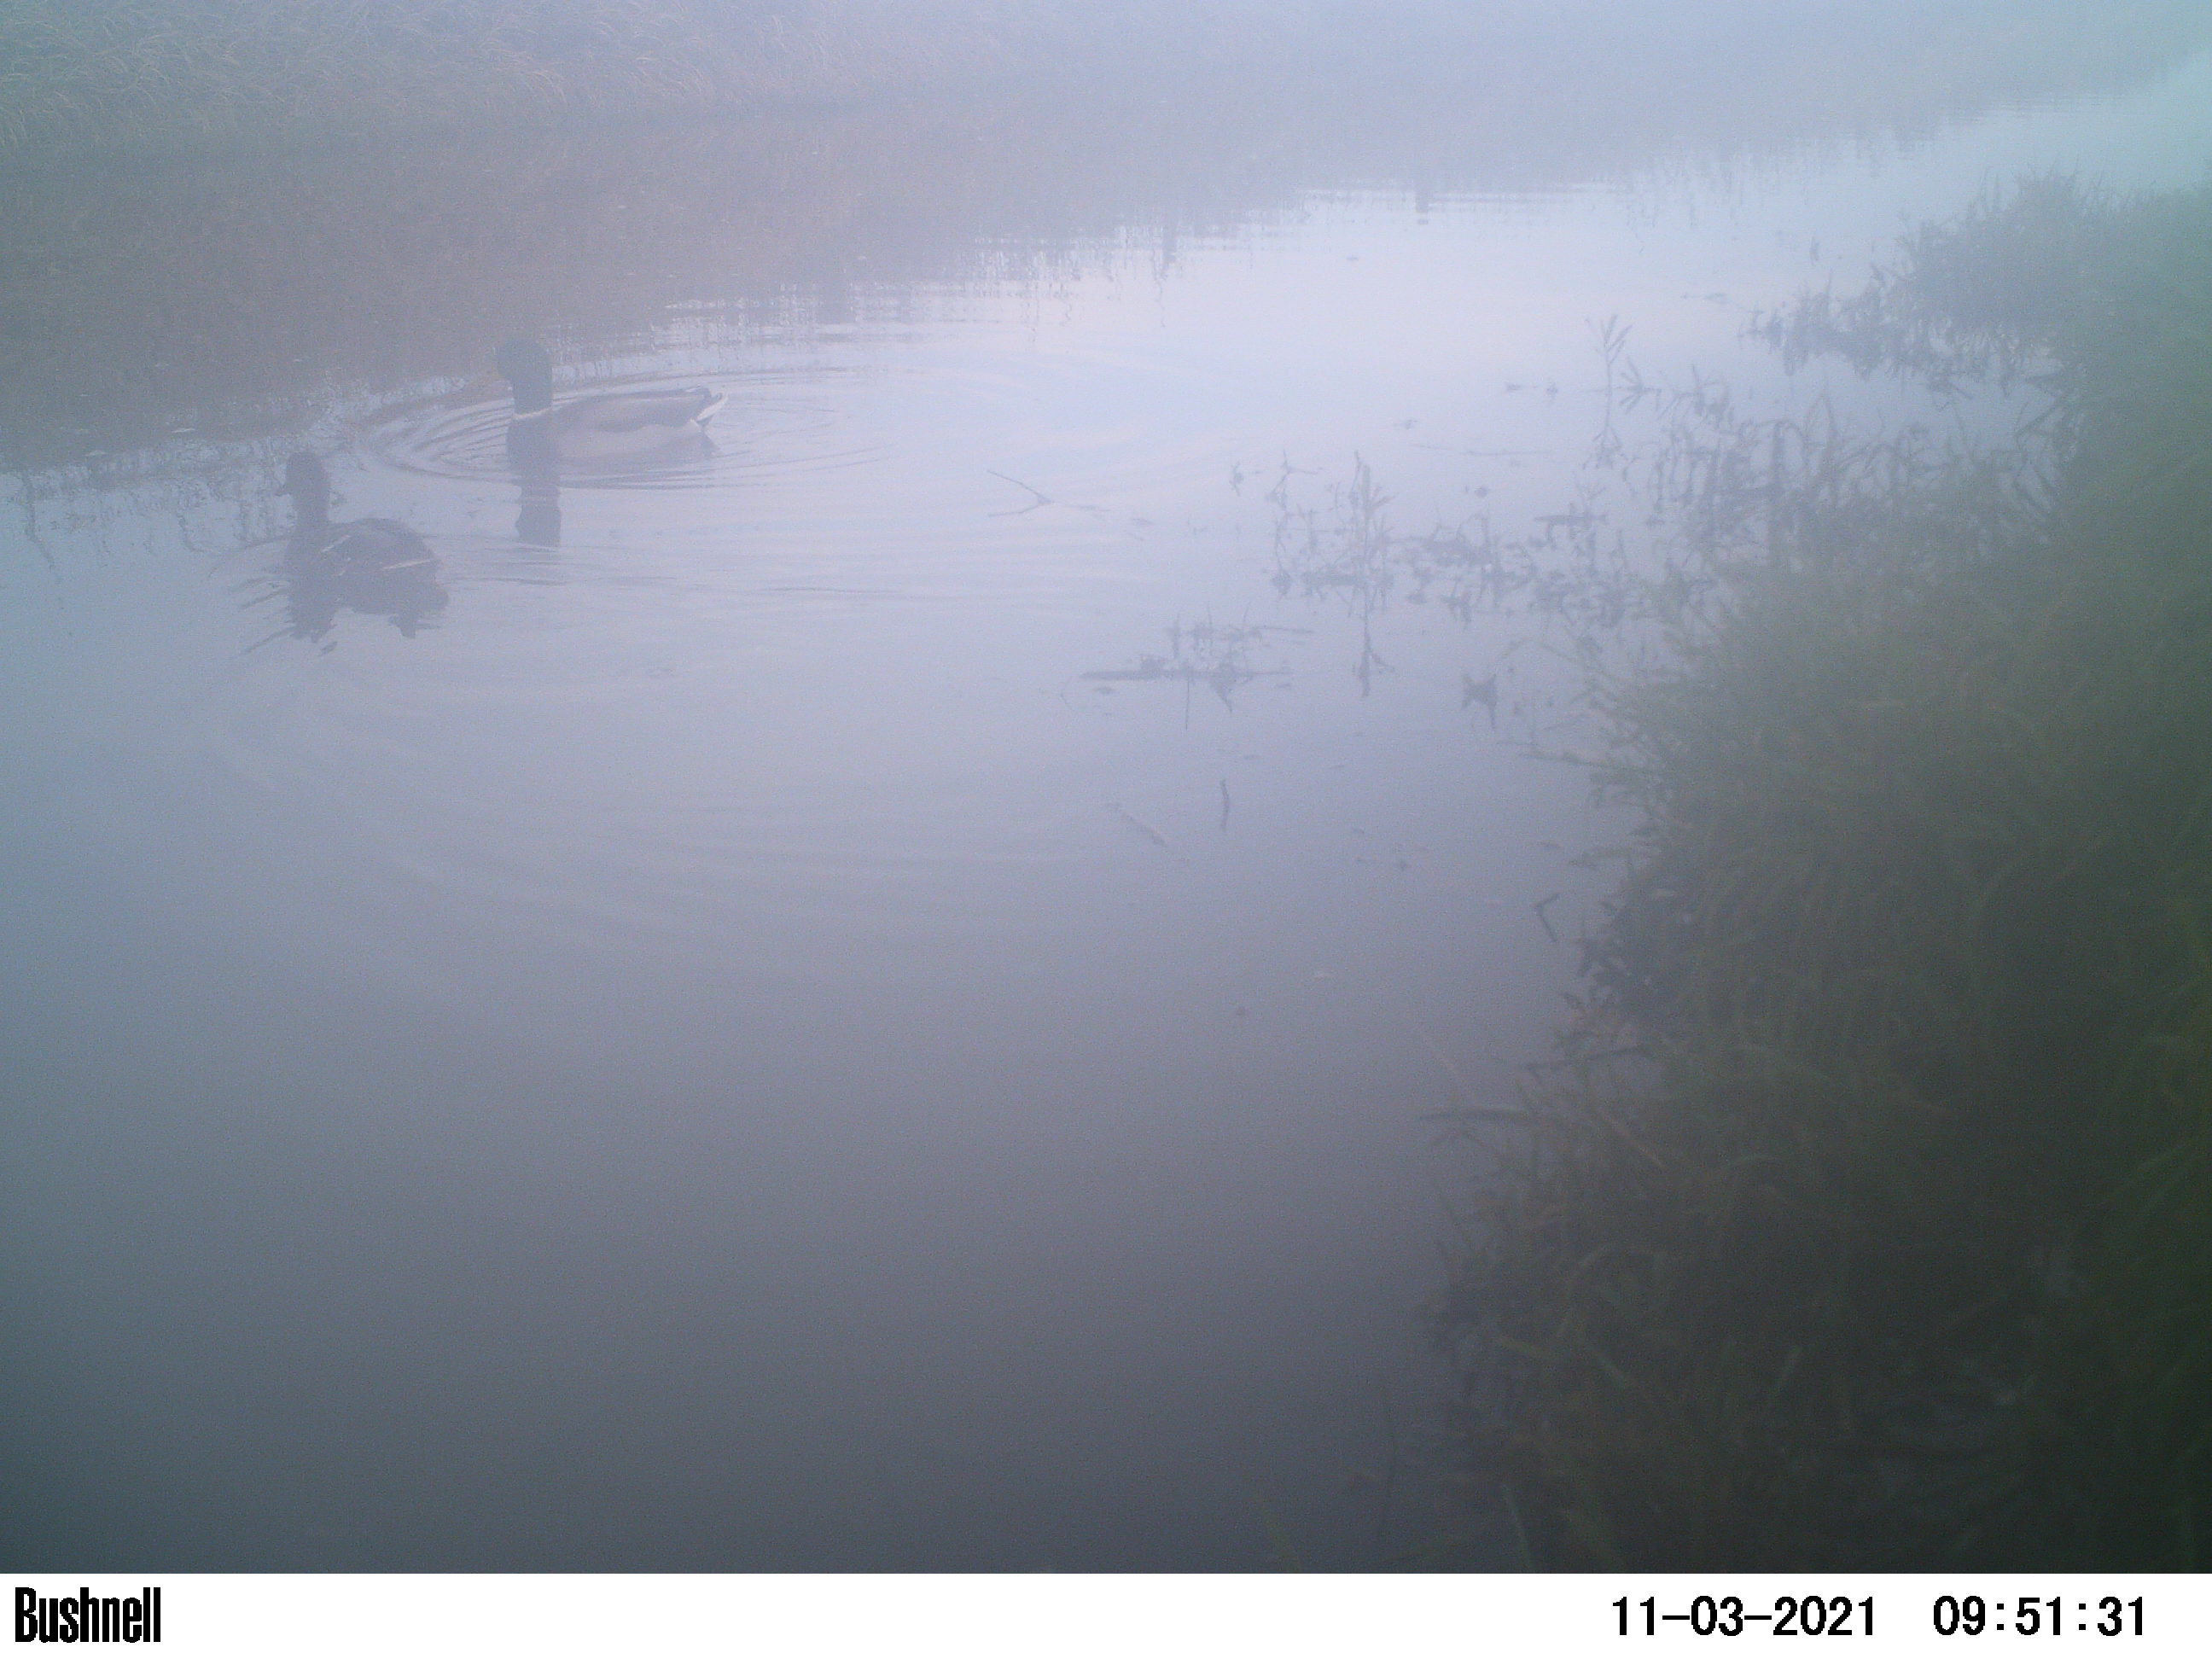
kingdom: Animalia
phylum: Chordata
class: Aves
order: Gruiformes
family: Rallidae
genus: Fulica
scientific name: Fulica atra
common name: Eurasian coot
